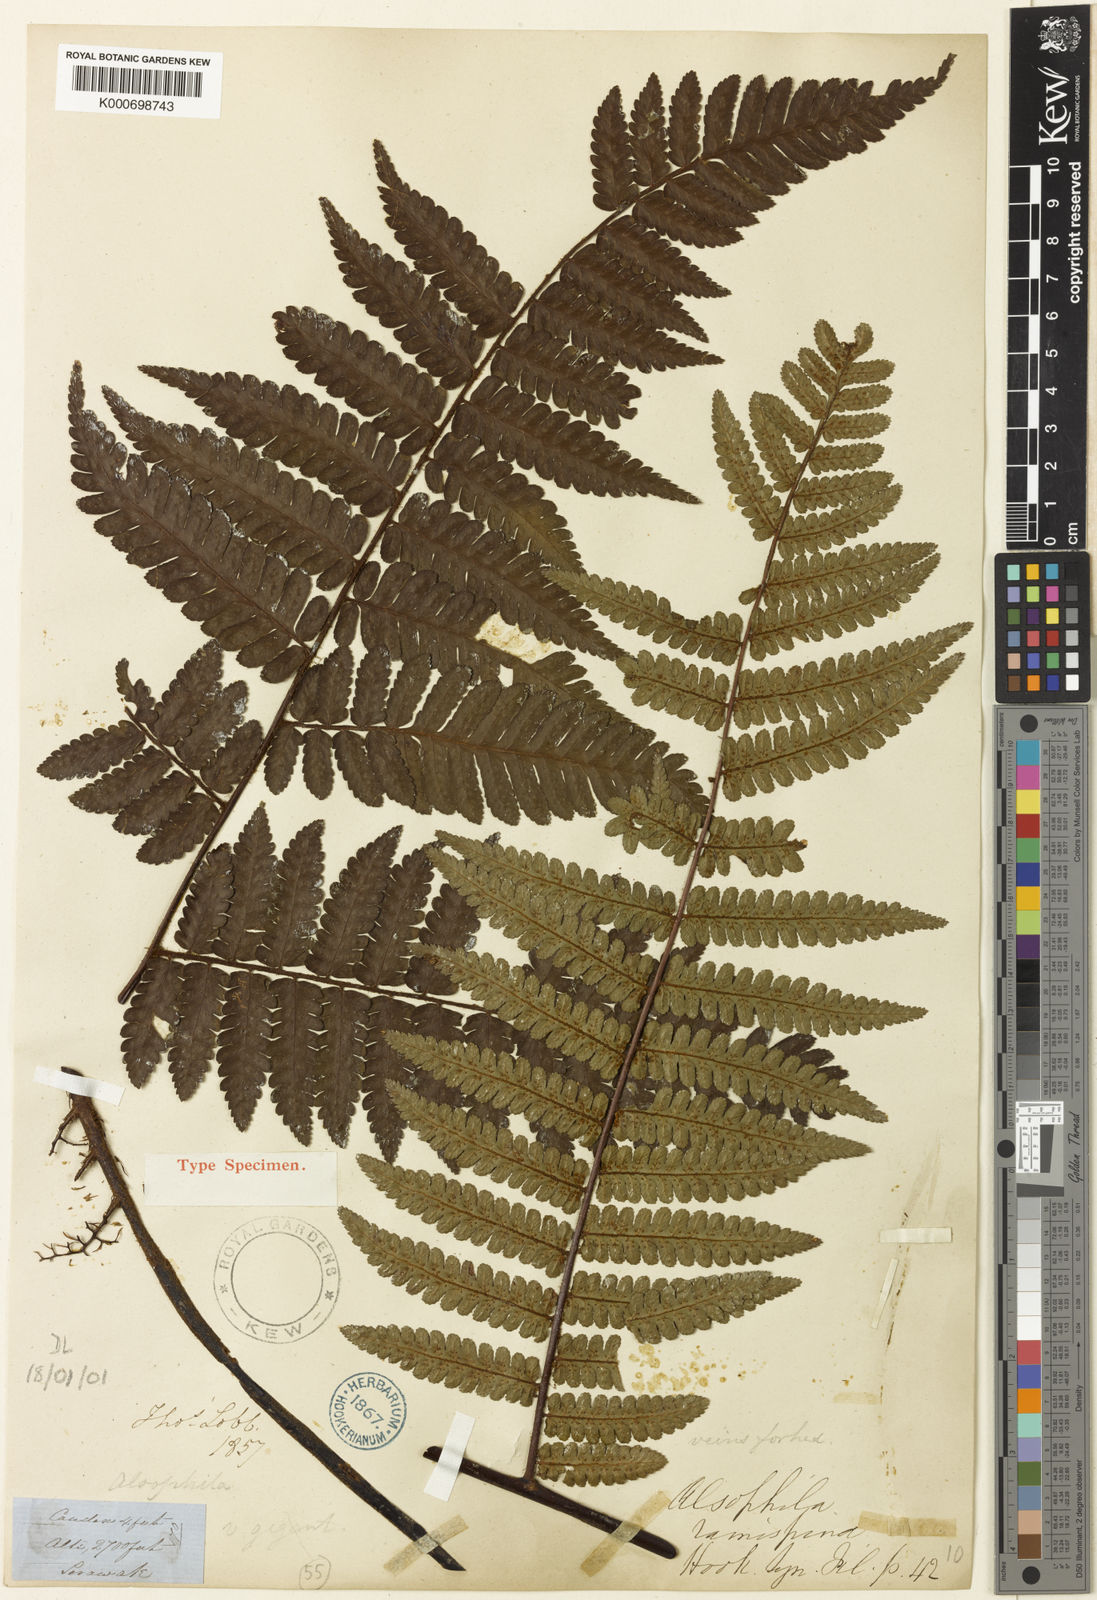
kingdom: Plantae
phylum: Tracheophyta
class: Polypodiopsida
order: Cyatheales
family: Cyatheaceae
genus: Gymnosphaera
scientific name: Gymnosphaera ramispina
